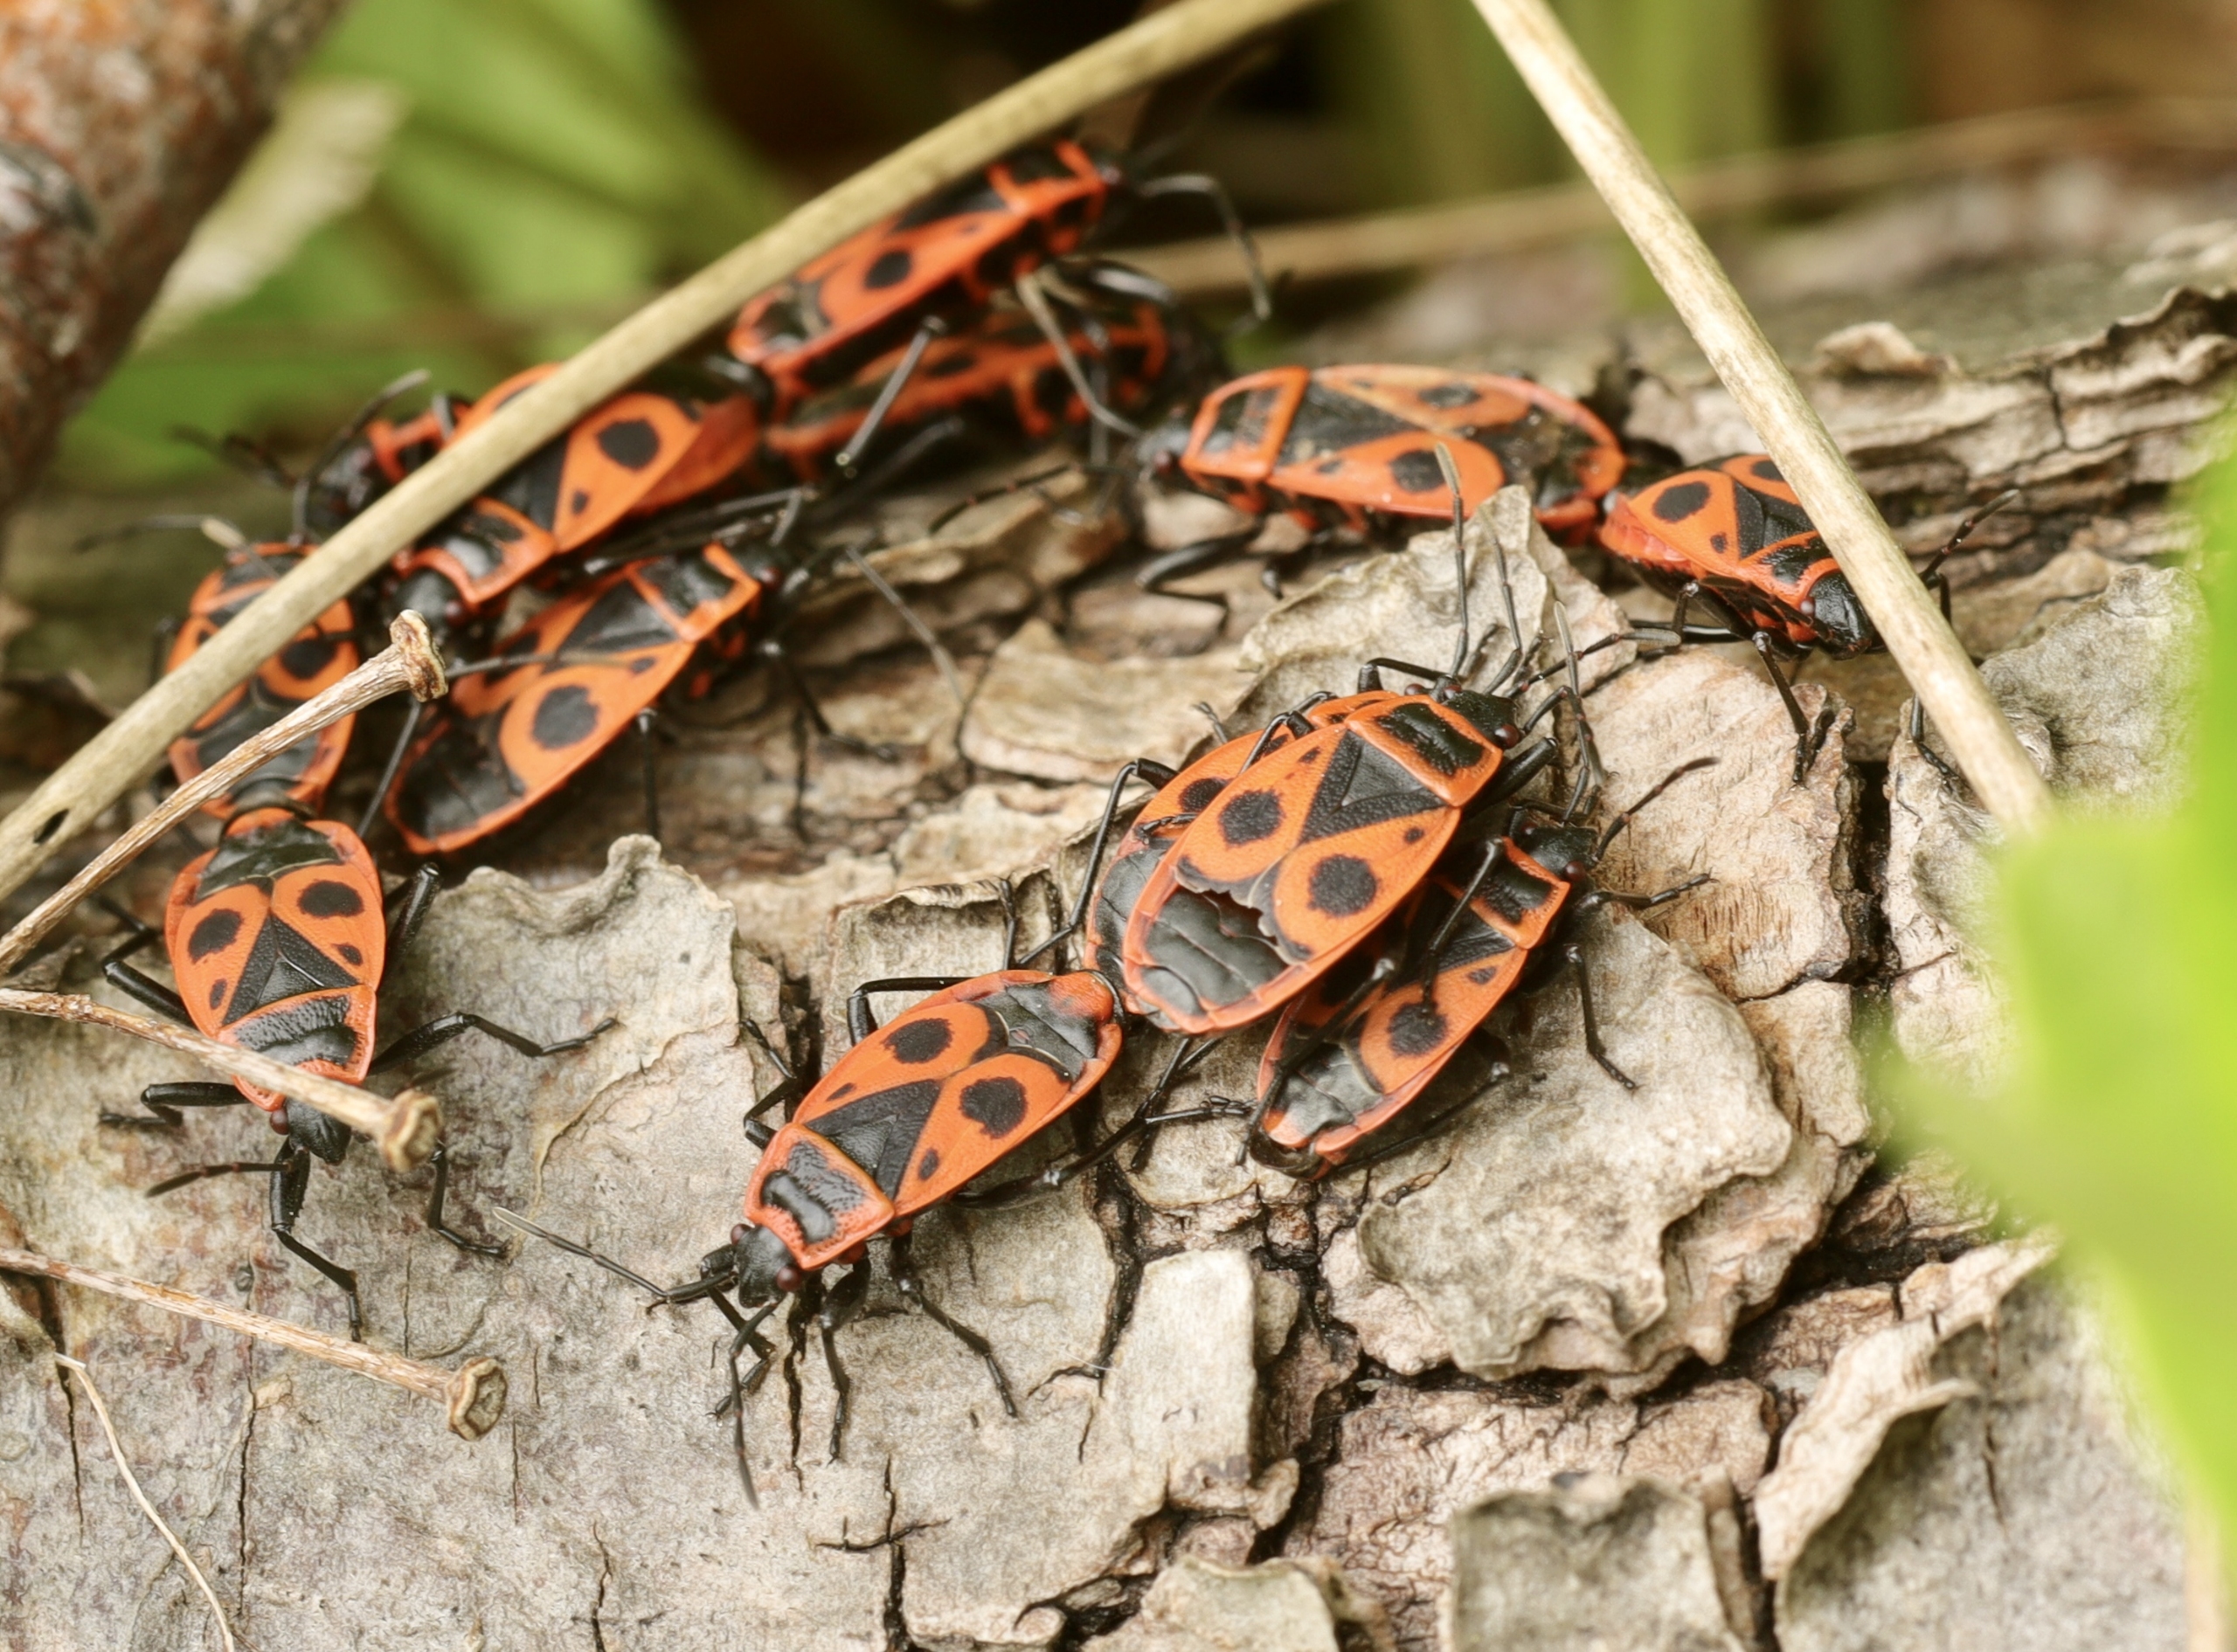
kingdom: Animalia
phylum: Arthropoda
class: Insecta
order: Hemiptera
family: Pyrrhocoridae
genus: Pyrrhocoris
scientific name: Pyrrhocoris apterus
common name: Ildtæge
